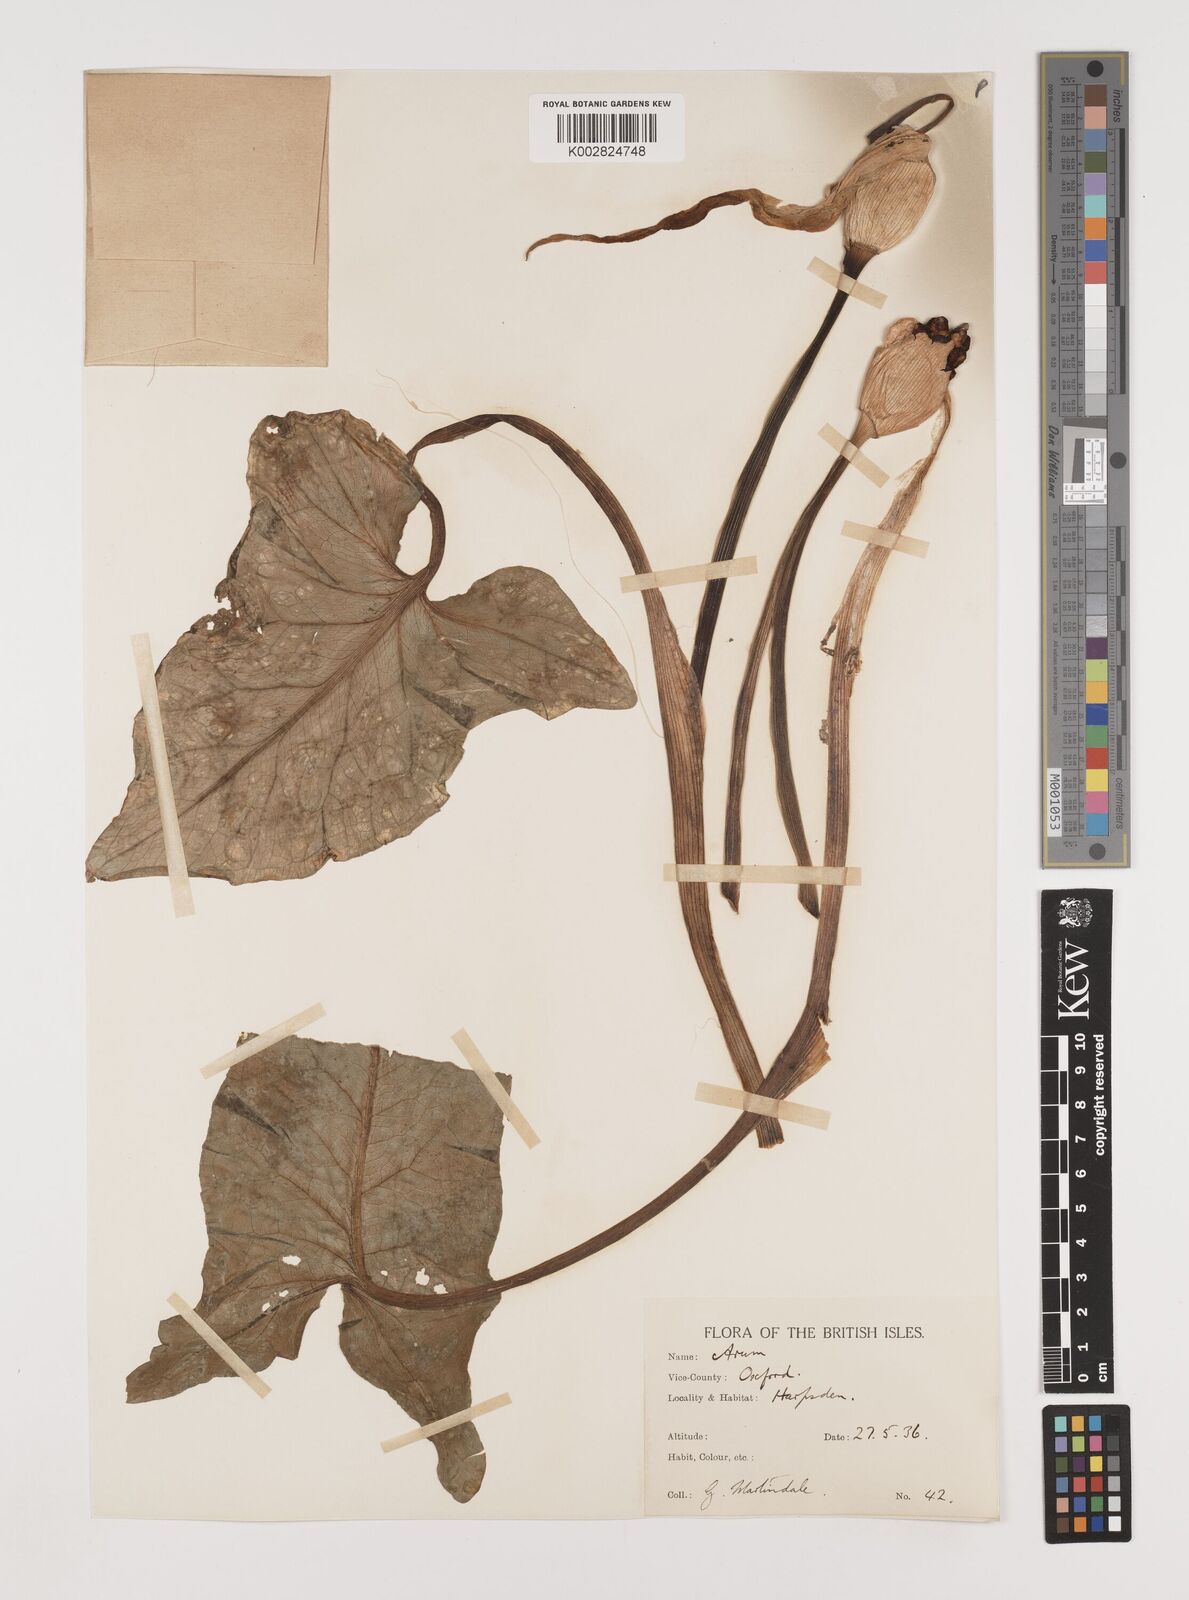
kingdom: Plantae
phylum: Tracheophyta
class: Liliopsida
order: Alismatales
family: Araceae
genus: Arum
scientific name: Arum maculatum
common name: Lords-and-ladies
